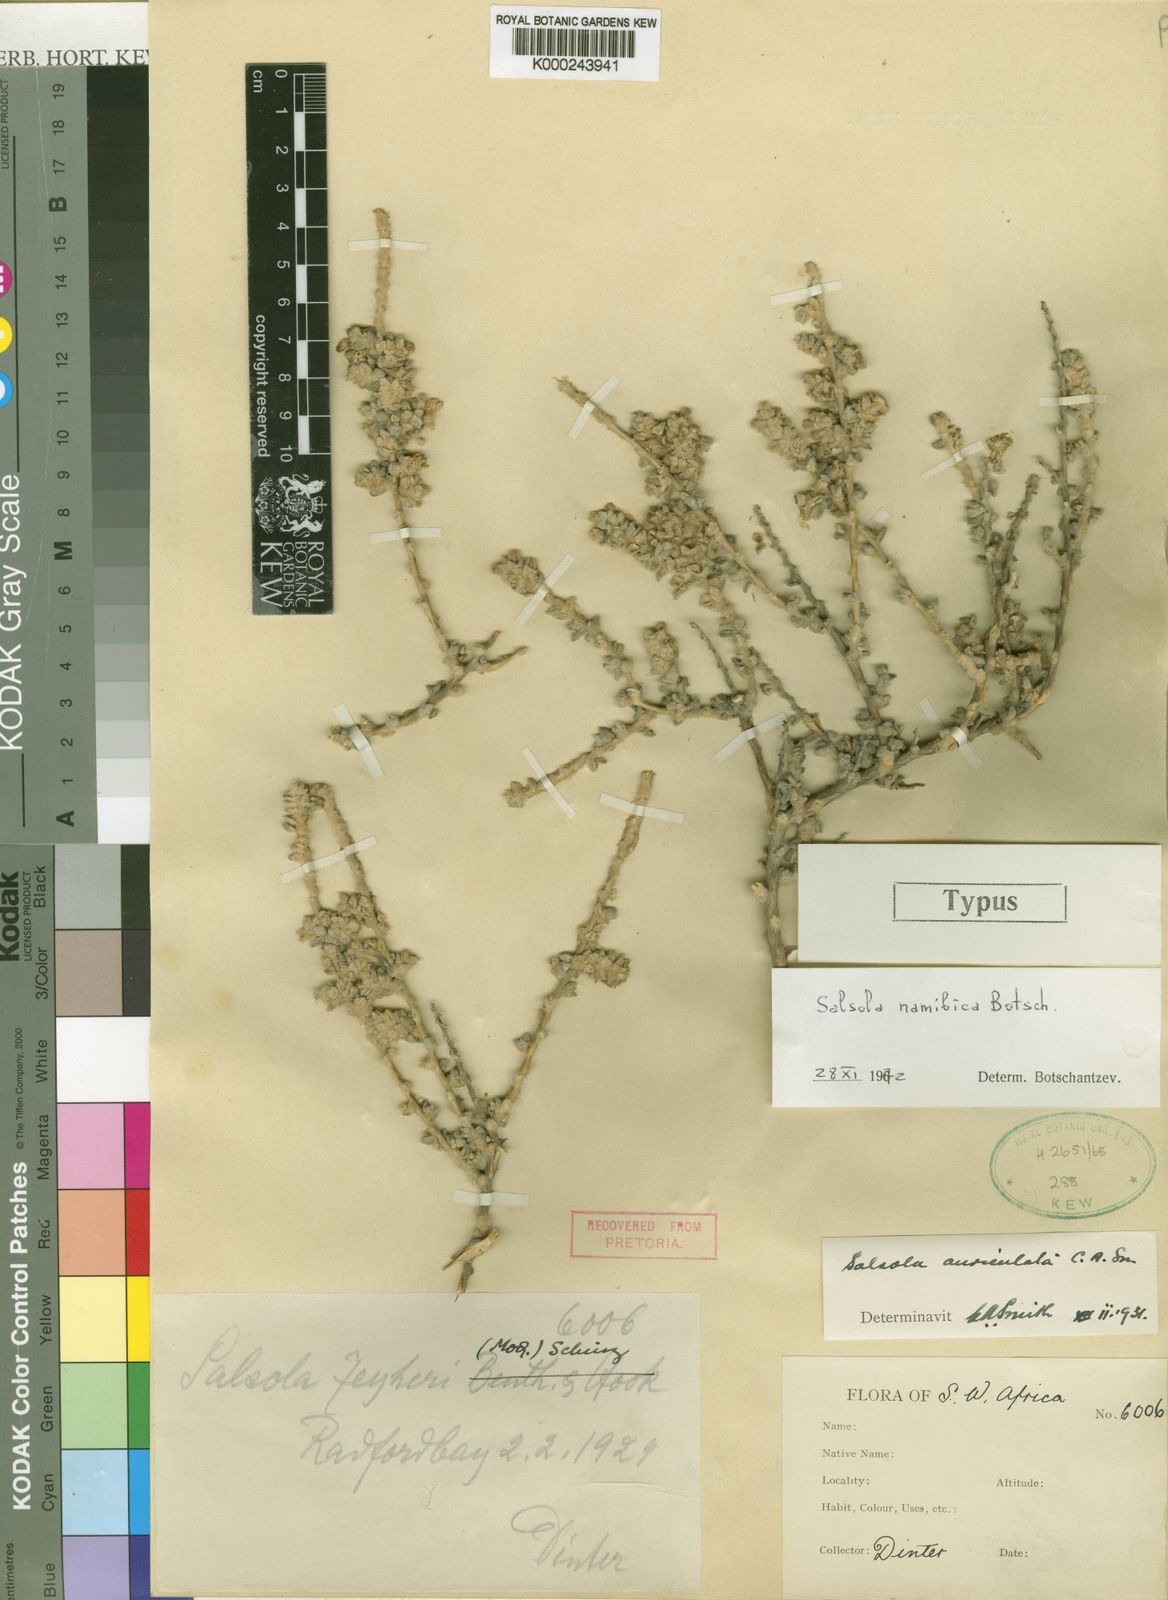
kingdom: Plantae
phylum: Tracheophyta
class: Magnoliopsida
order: Caryophyllales
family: Amaranthaceae
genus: Caroxylon
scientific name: Caroxylon namibicum
